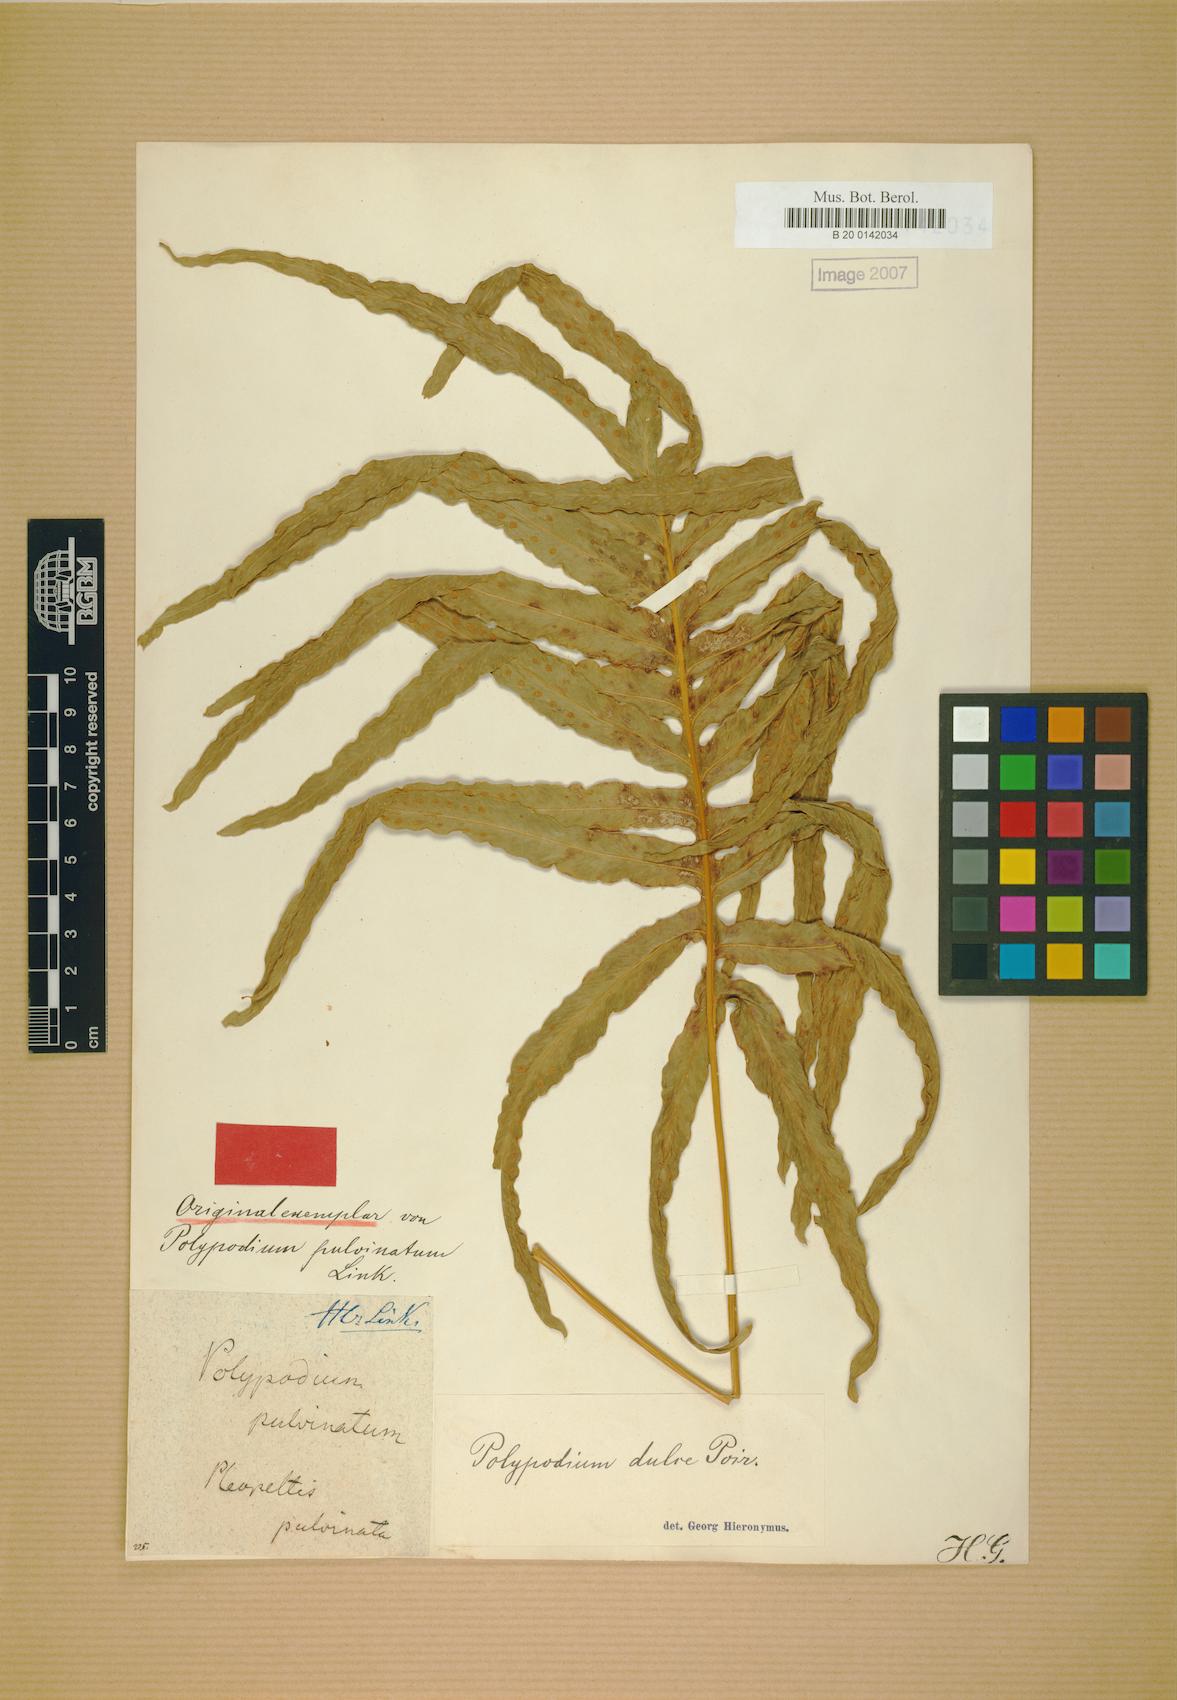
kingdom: Plantae
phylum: Tracheophyta
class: Polypodiopsida
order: Polypodiales
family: Polypodiaceae
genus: Phlebodium
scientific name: Phlebodium aureum
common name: Gold-foot fern
